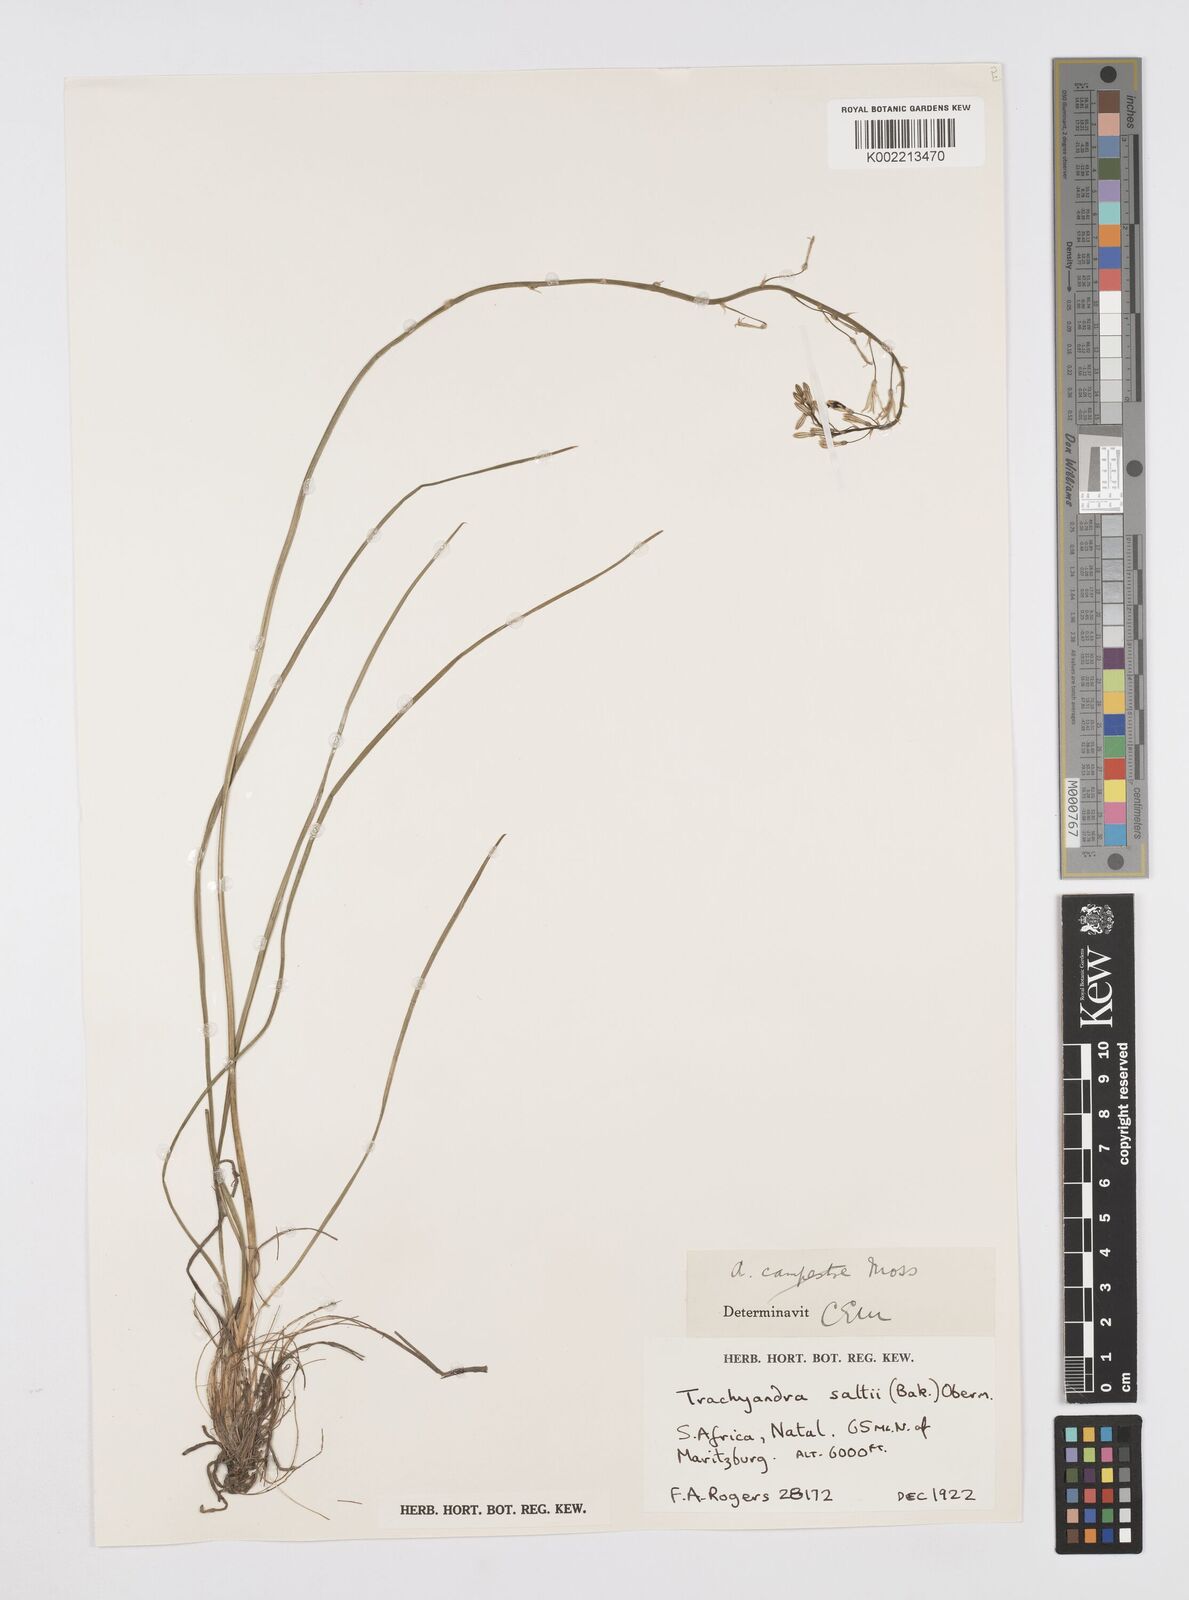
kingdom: Plantae
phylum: Tracheophyta
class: Liliopsida
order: Asparagales
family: Asphodelaceae
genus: Trachyandra
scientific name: Trachyandra saltii
